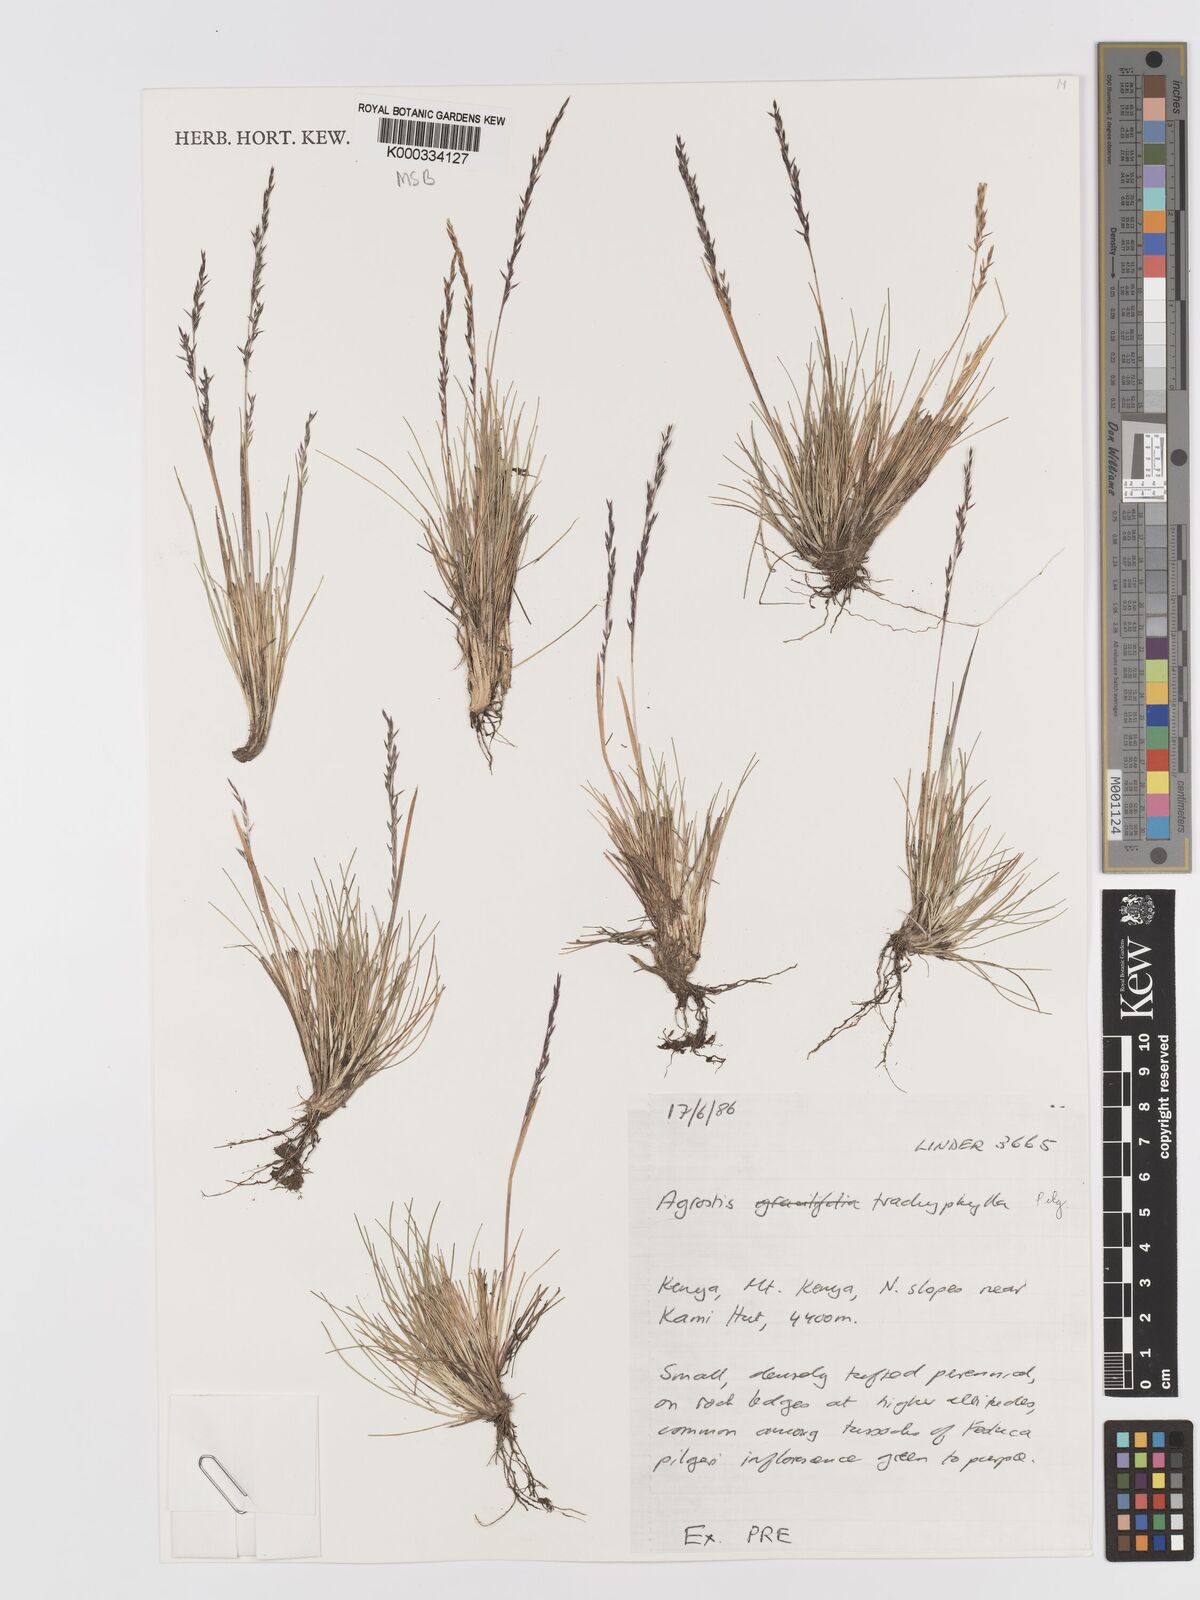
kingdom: Plantae
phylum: Tracheophyta
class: Liliopsida
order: Poales
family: Poaceae
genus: Agrostis
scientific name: Agrostis trachyphylla
